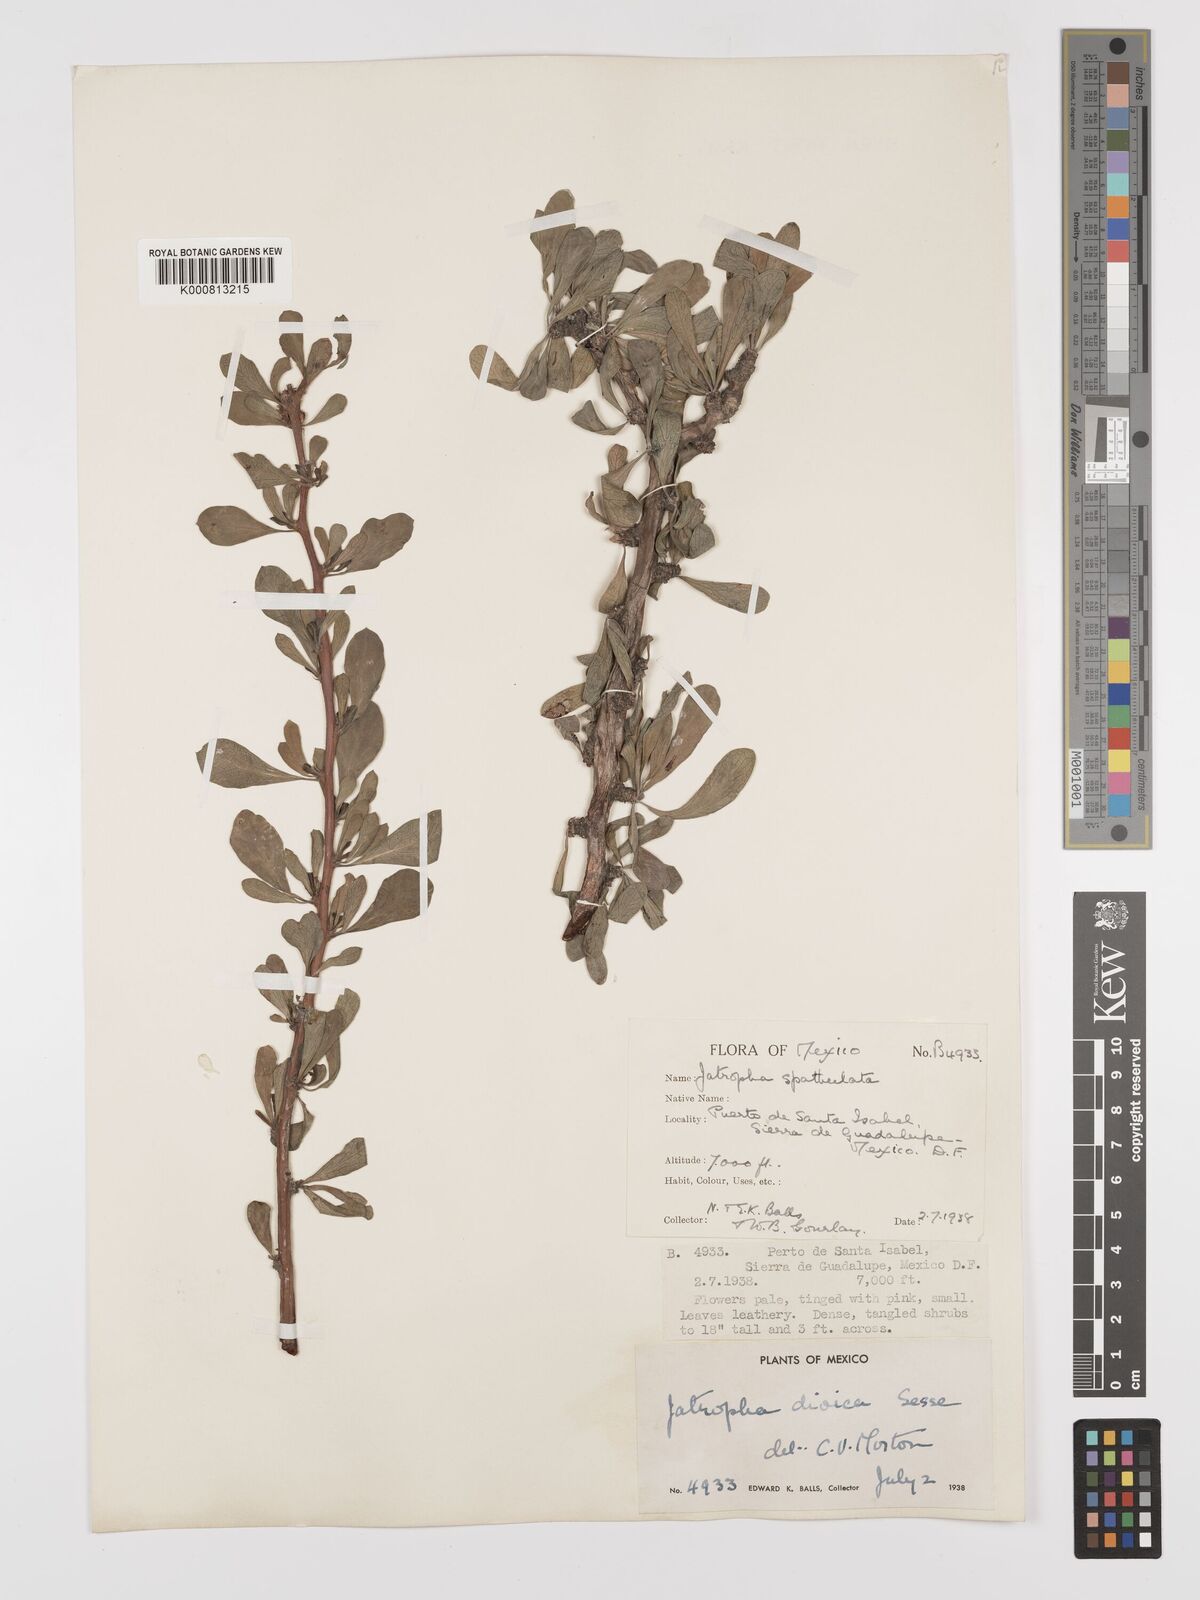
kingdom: Plantae
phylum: Tracheophyta
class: Magnoliopsida
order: Malpighiales
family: Euphorbiaceae
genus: Jatropha
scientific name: Jatropha
